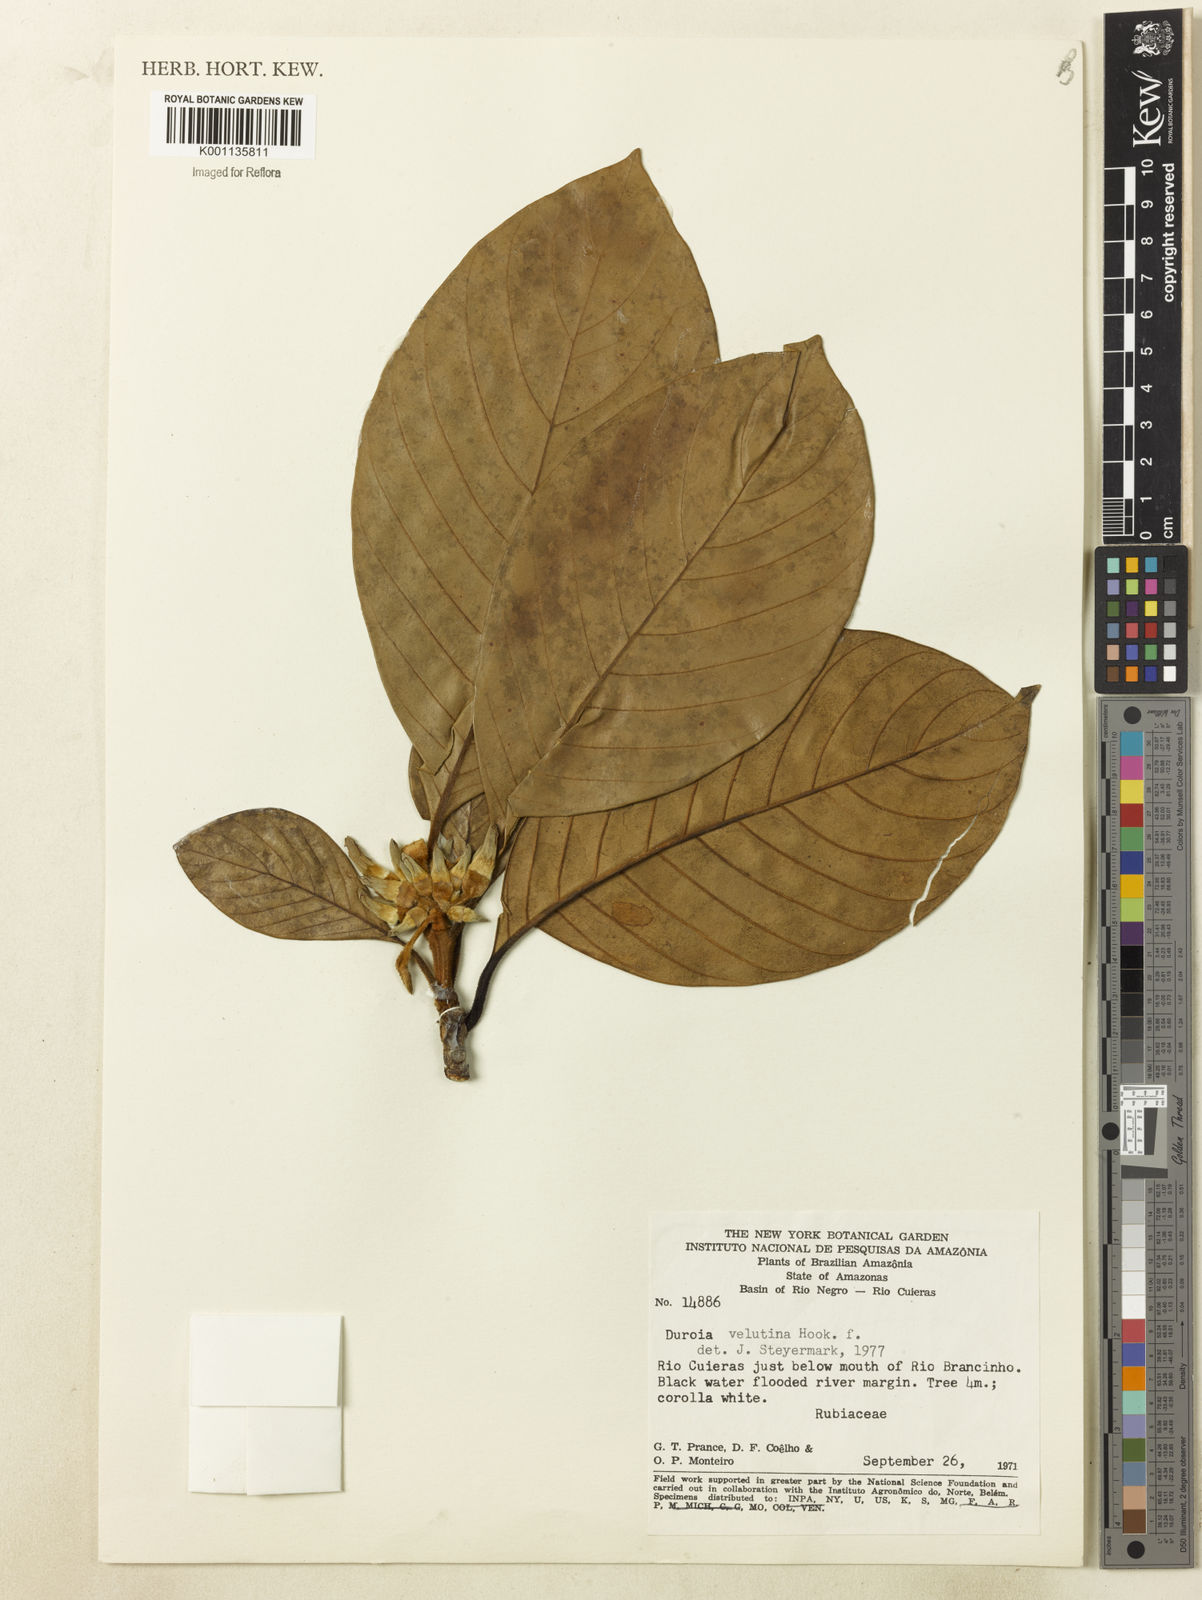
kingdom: Plantae
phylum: Tracheophyta
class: Magnoliopsida
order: Gentianales
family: Rubiaceae
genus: Duroia
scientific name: Duroia velutina
